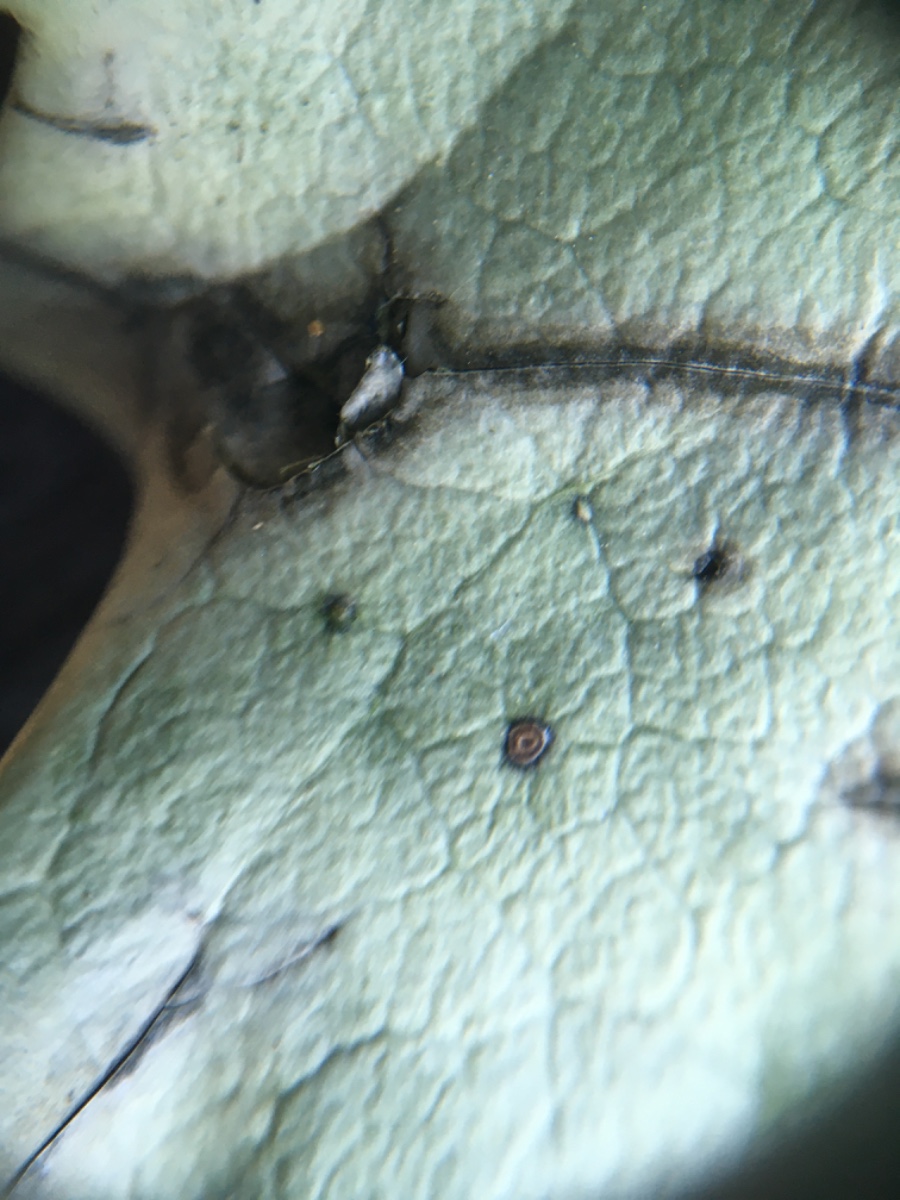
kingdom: Fungi
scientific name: Fungi
